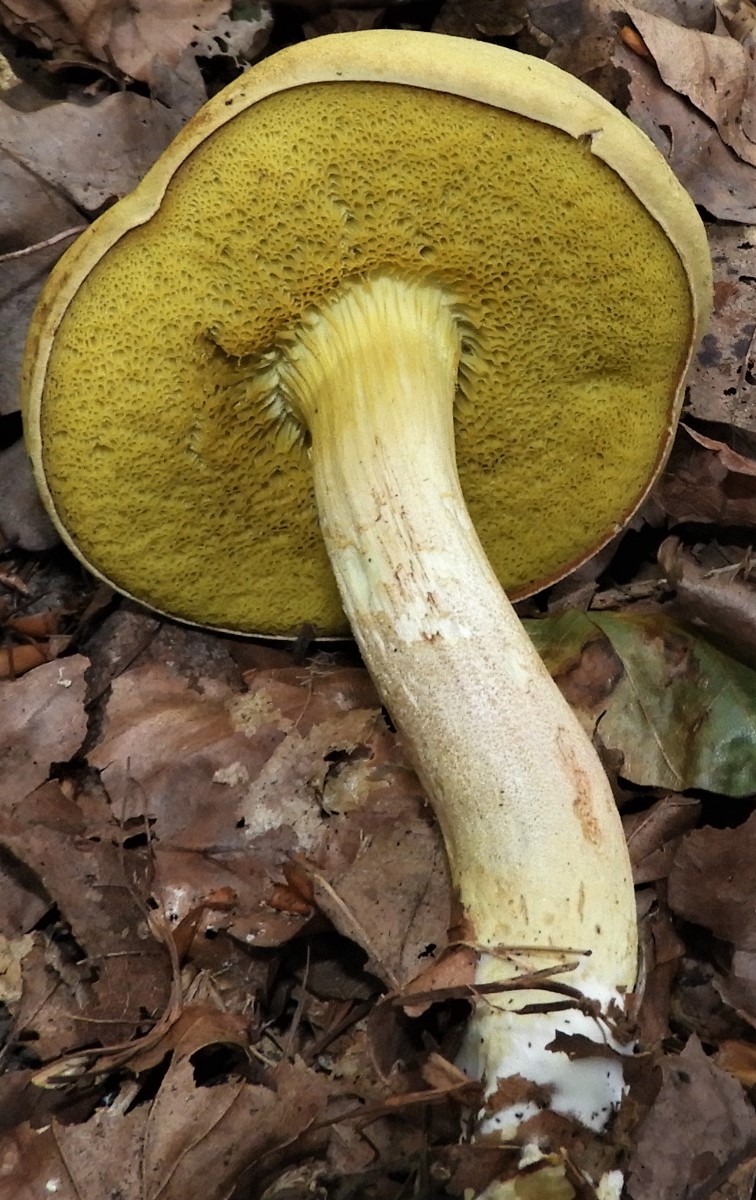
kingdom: Fungi
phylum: Basidiomycota
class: Agaricomycetes
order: Boletales
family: Boletaceae
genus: Xerocomus
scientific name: Xerocomus subtomentosus
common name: filtet rørhat
